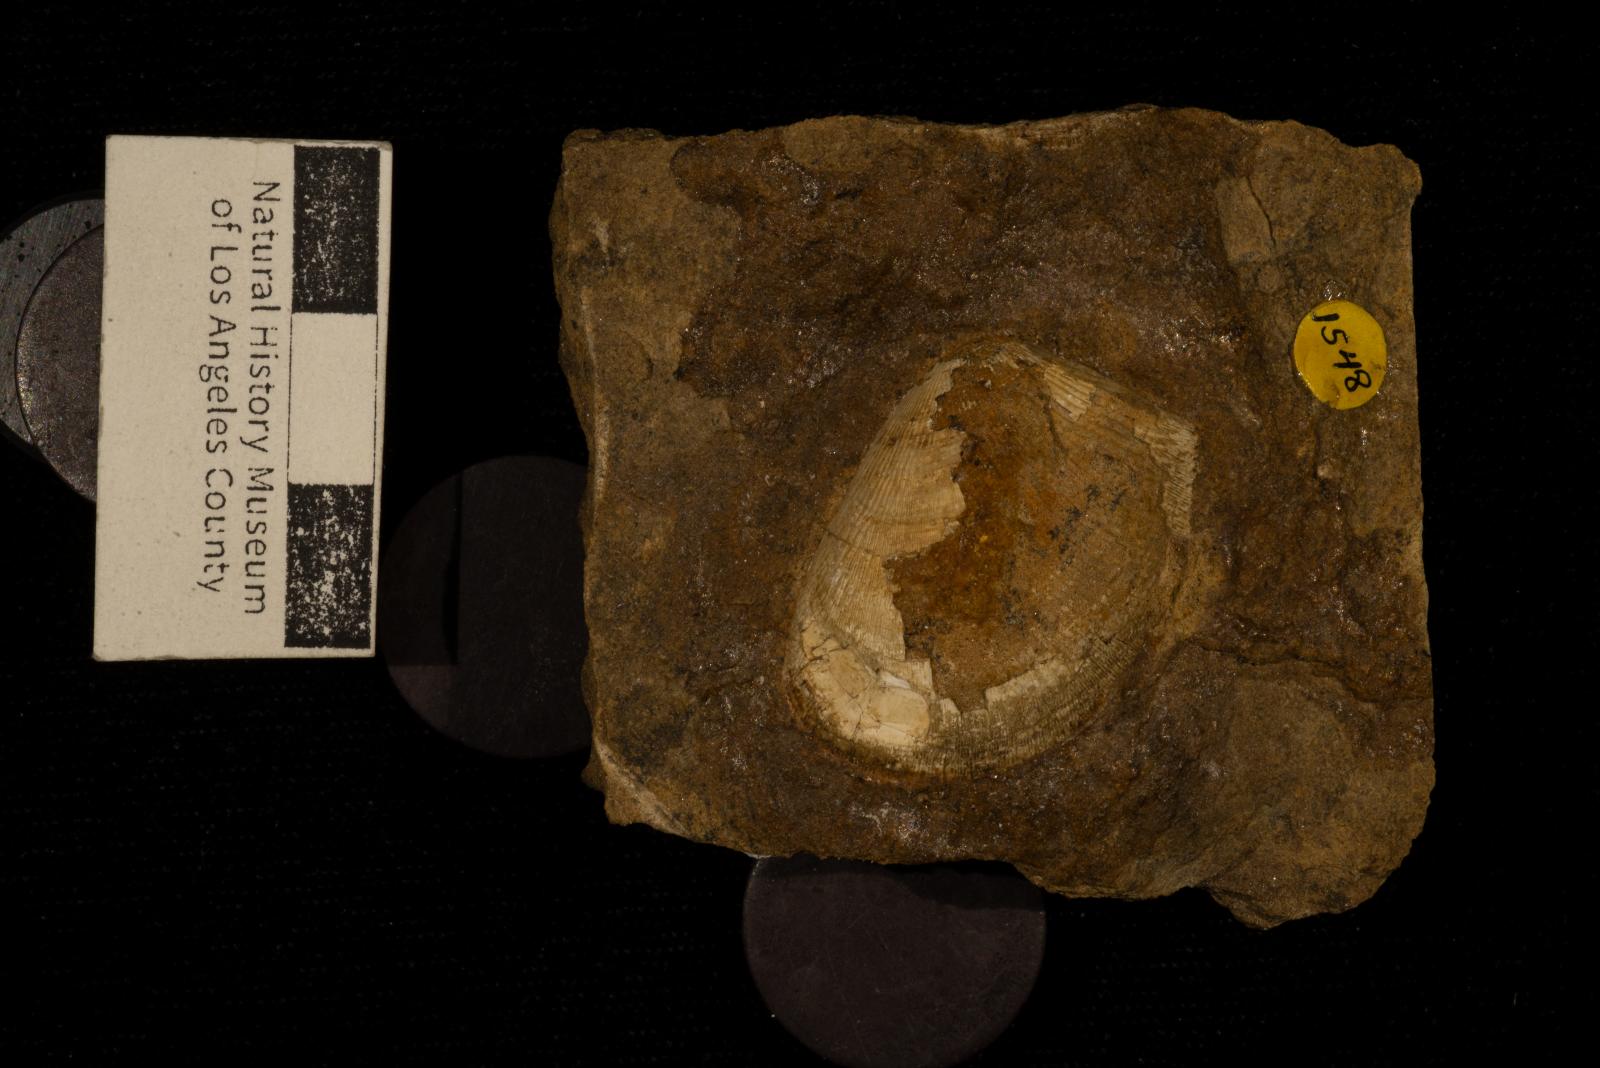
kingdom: Animalia
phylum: Mollusca
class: Bivalvia
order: Nuculida
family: Nuculidae
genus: Acila
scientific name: Acila princeps
